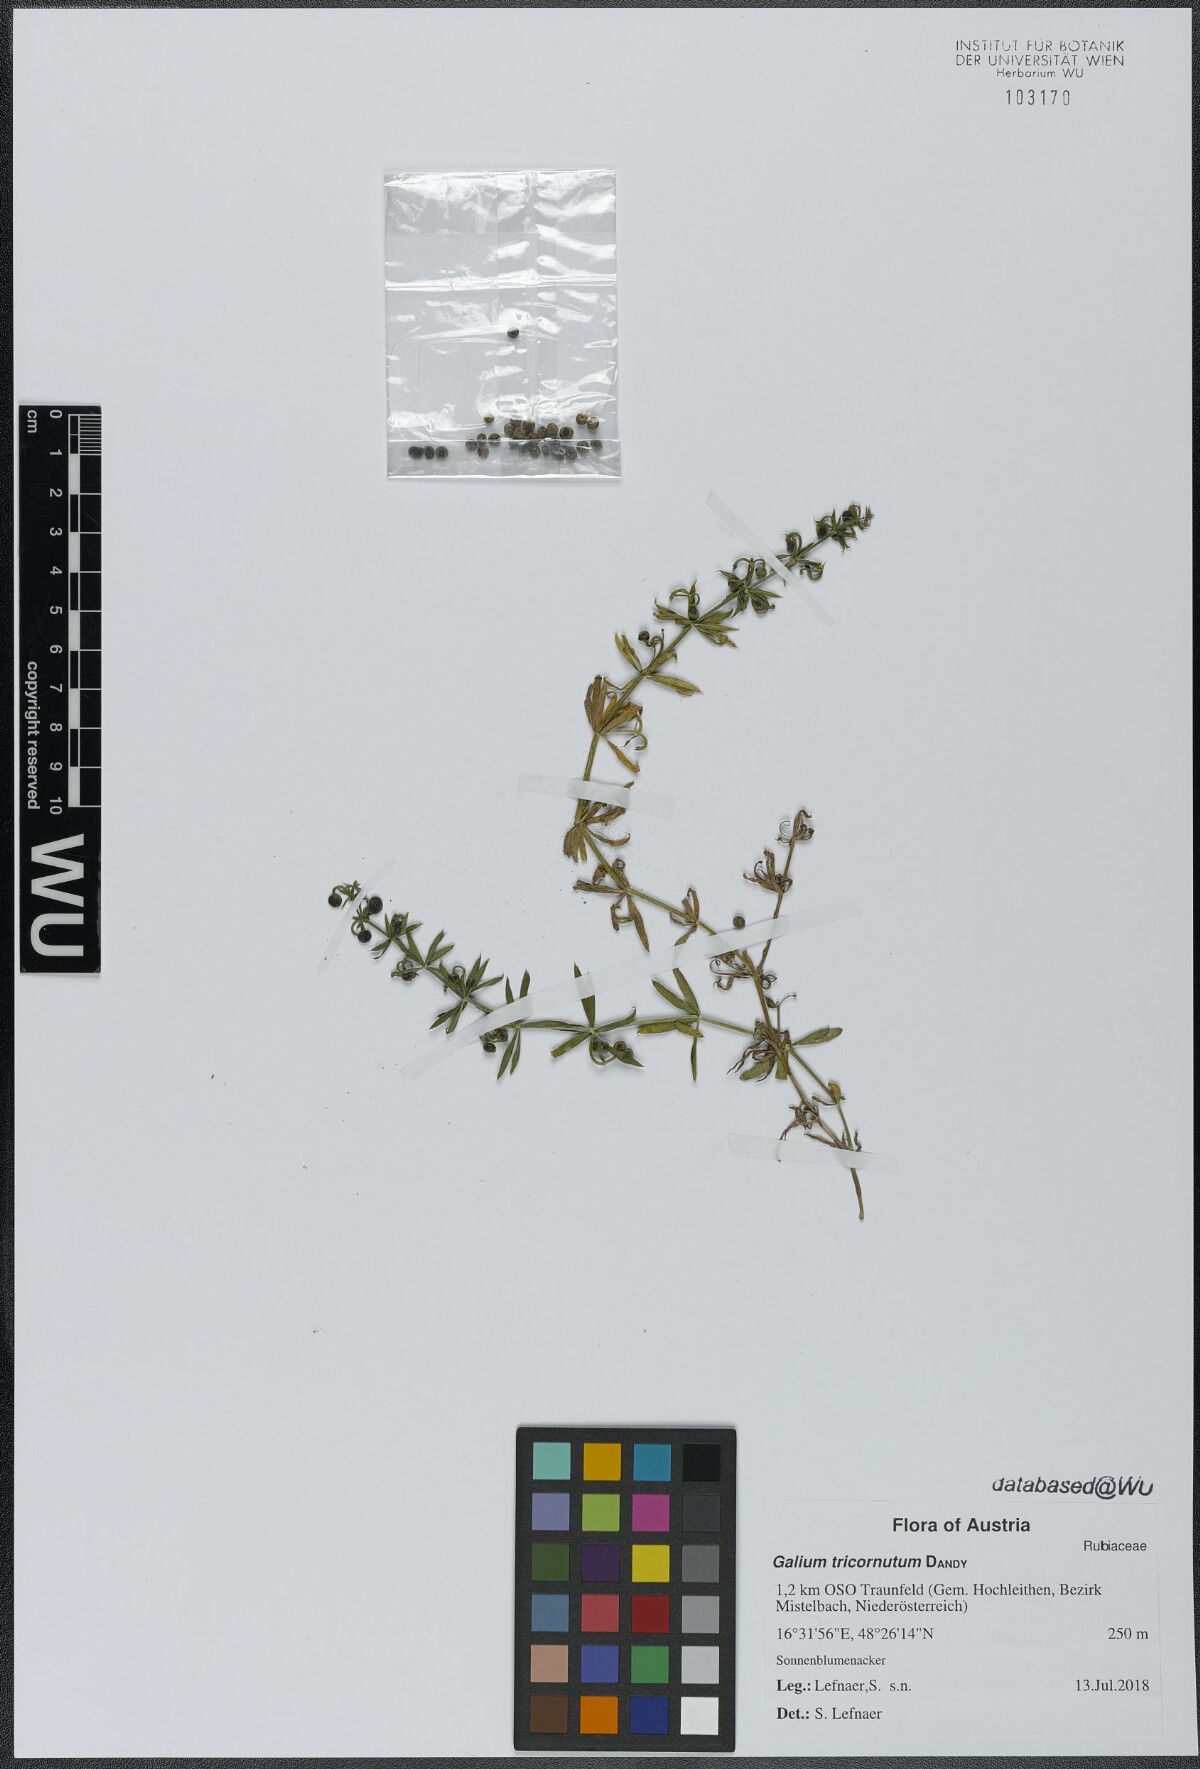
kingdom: Plantae
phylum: Tracheophyta
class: Magnoliopsida
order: Gentianales
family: Rubiaceae
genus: Galium
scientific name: Galium tricornutum
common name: Corn cleavers
